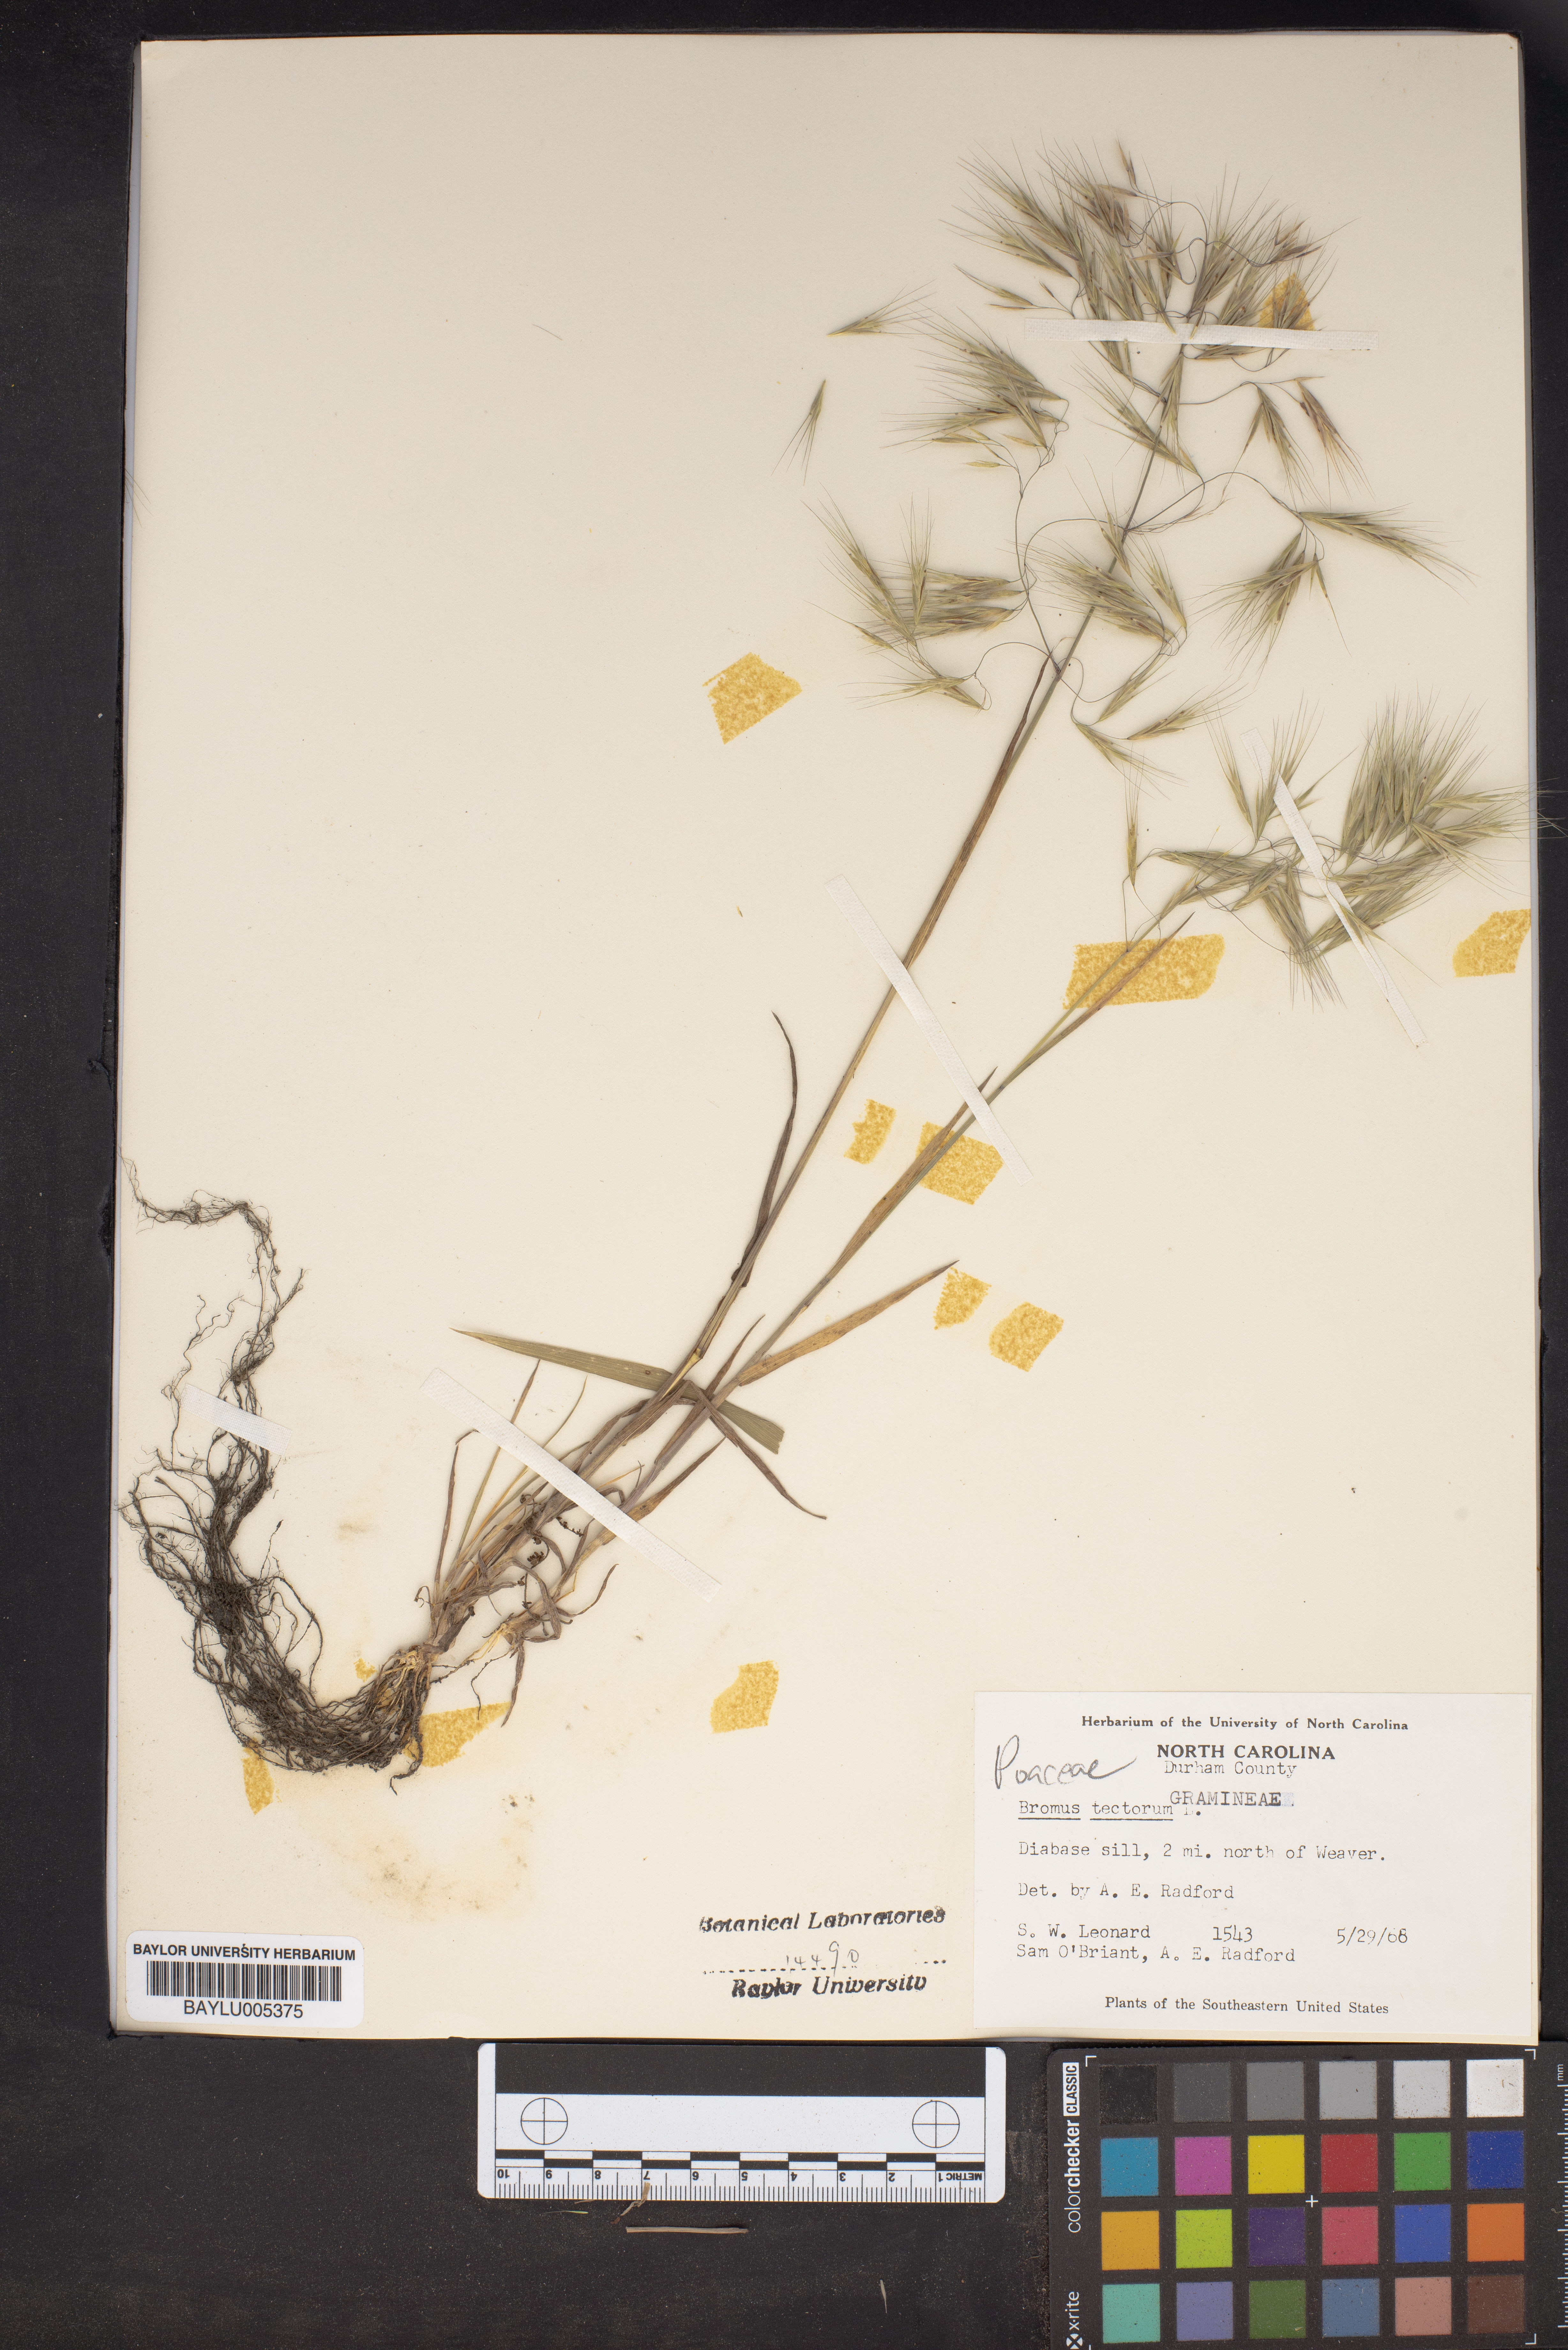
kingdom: Plantae
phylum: Tracheophyta
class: Liliopsida
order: Poales
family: Poaceae
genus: Bromus
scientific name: Bromus tectorum
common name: Cheatgrass
